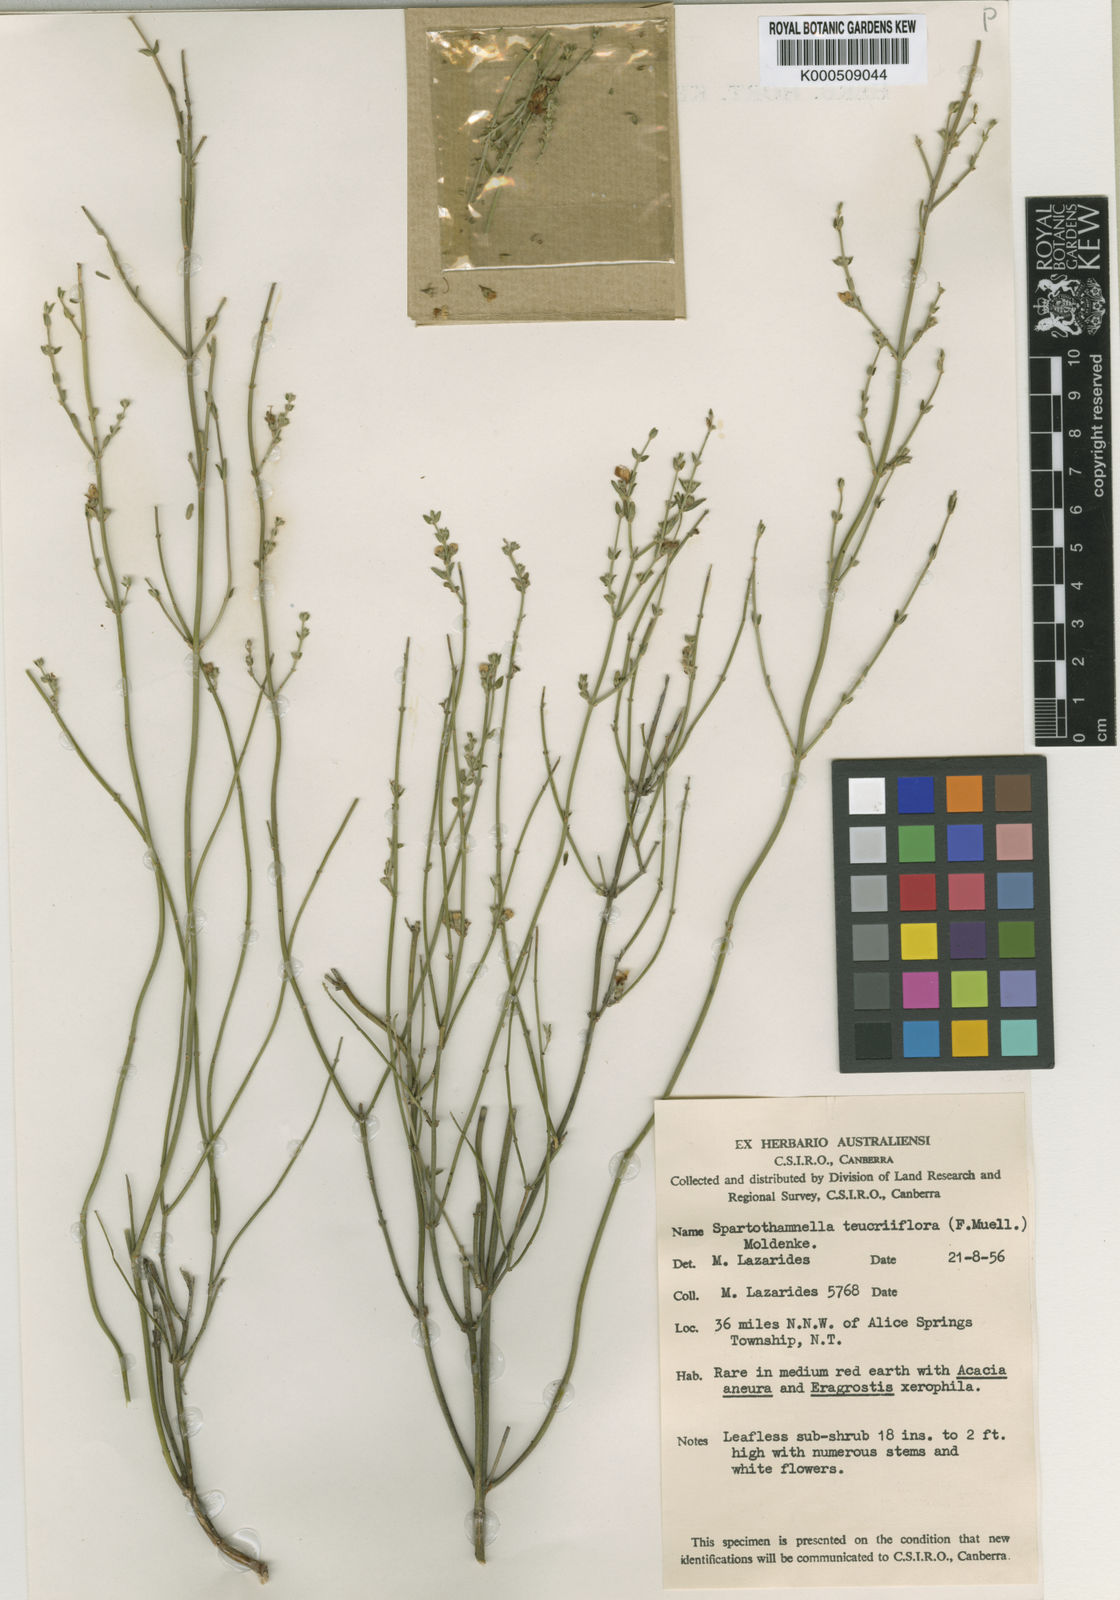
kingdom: Plantae
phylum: Tracheophyta
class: Magnoliopsida
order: Lamiales
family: Lamiaceae
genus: Teucrium
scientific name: Teucrium teucriiflorum
